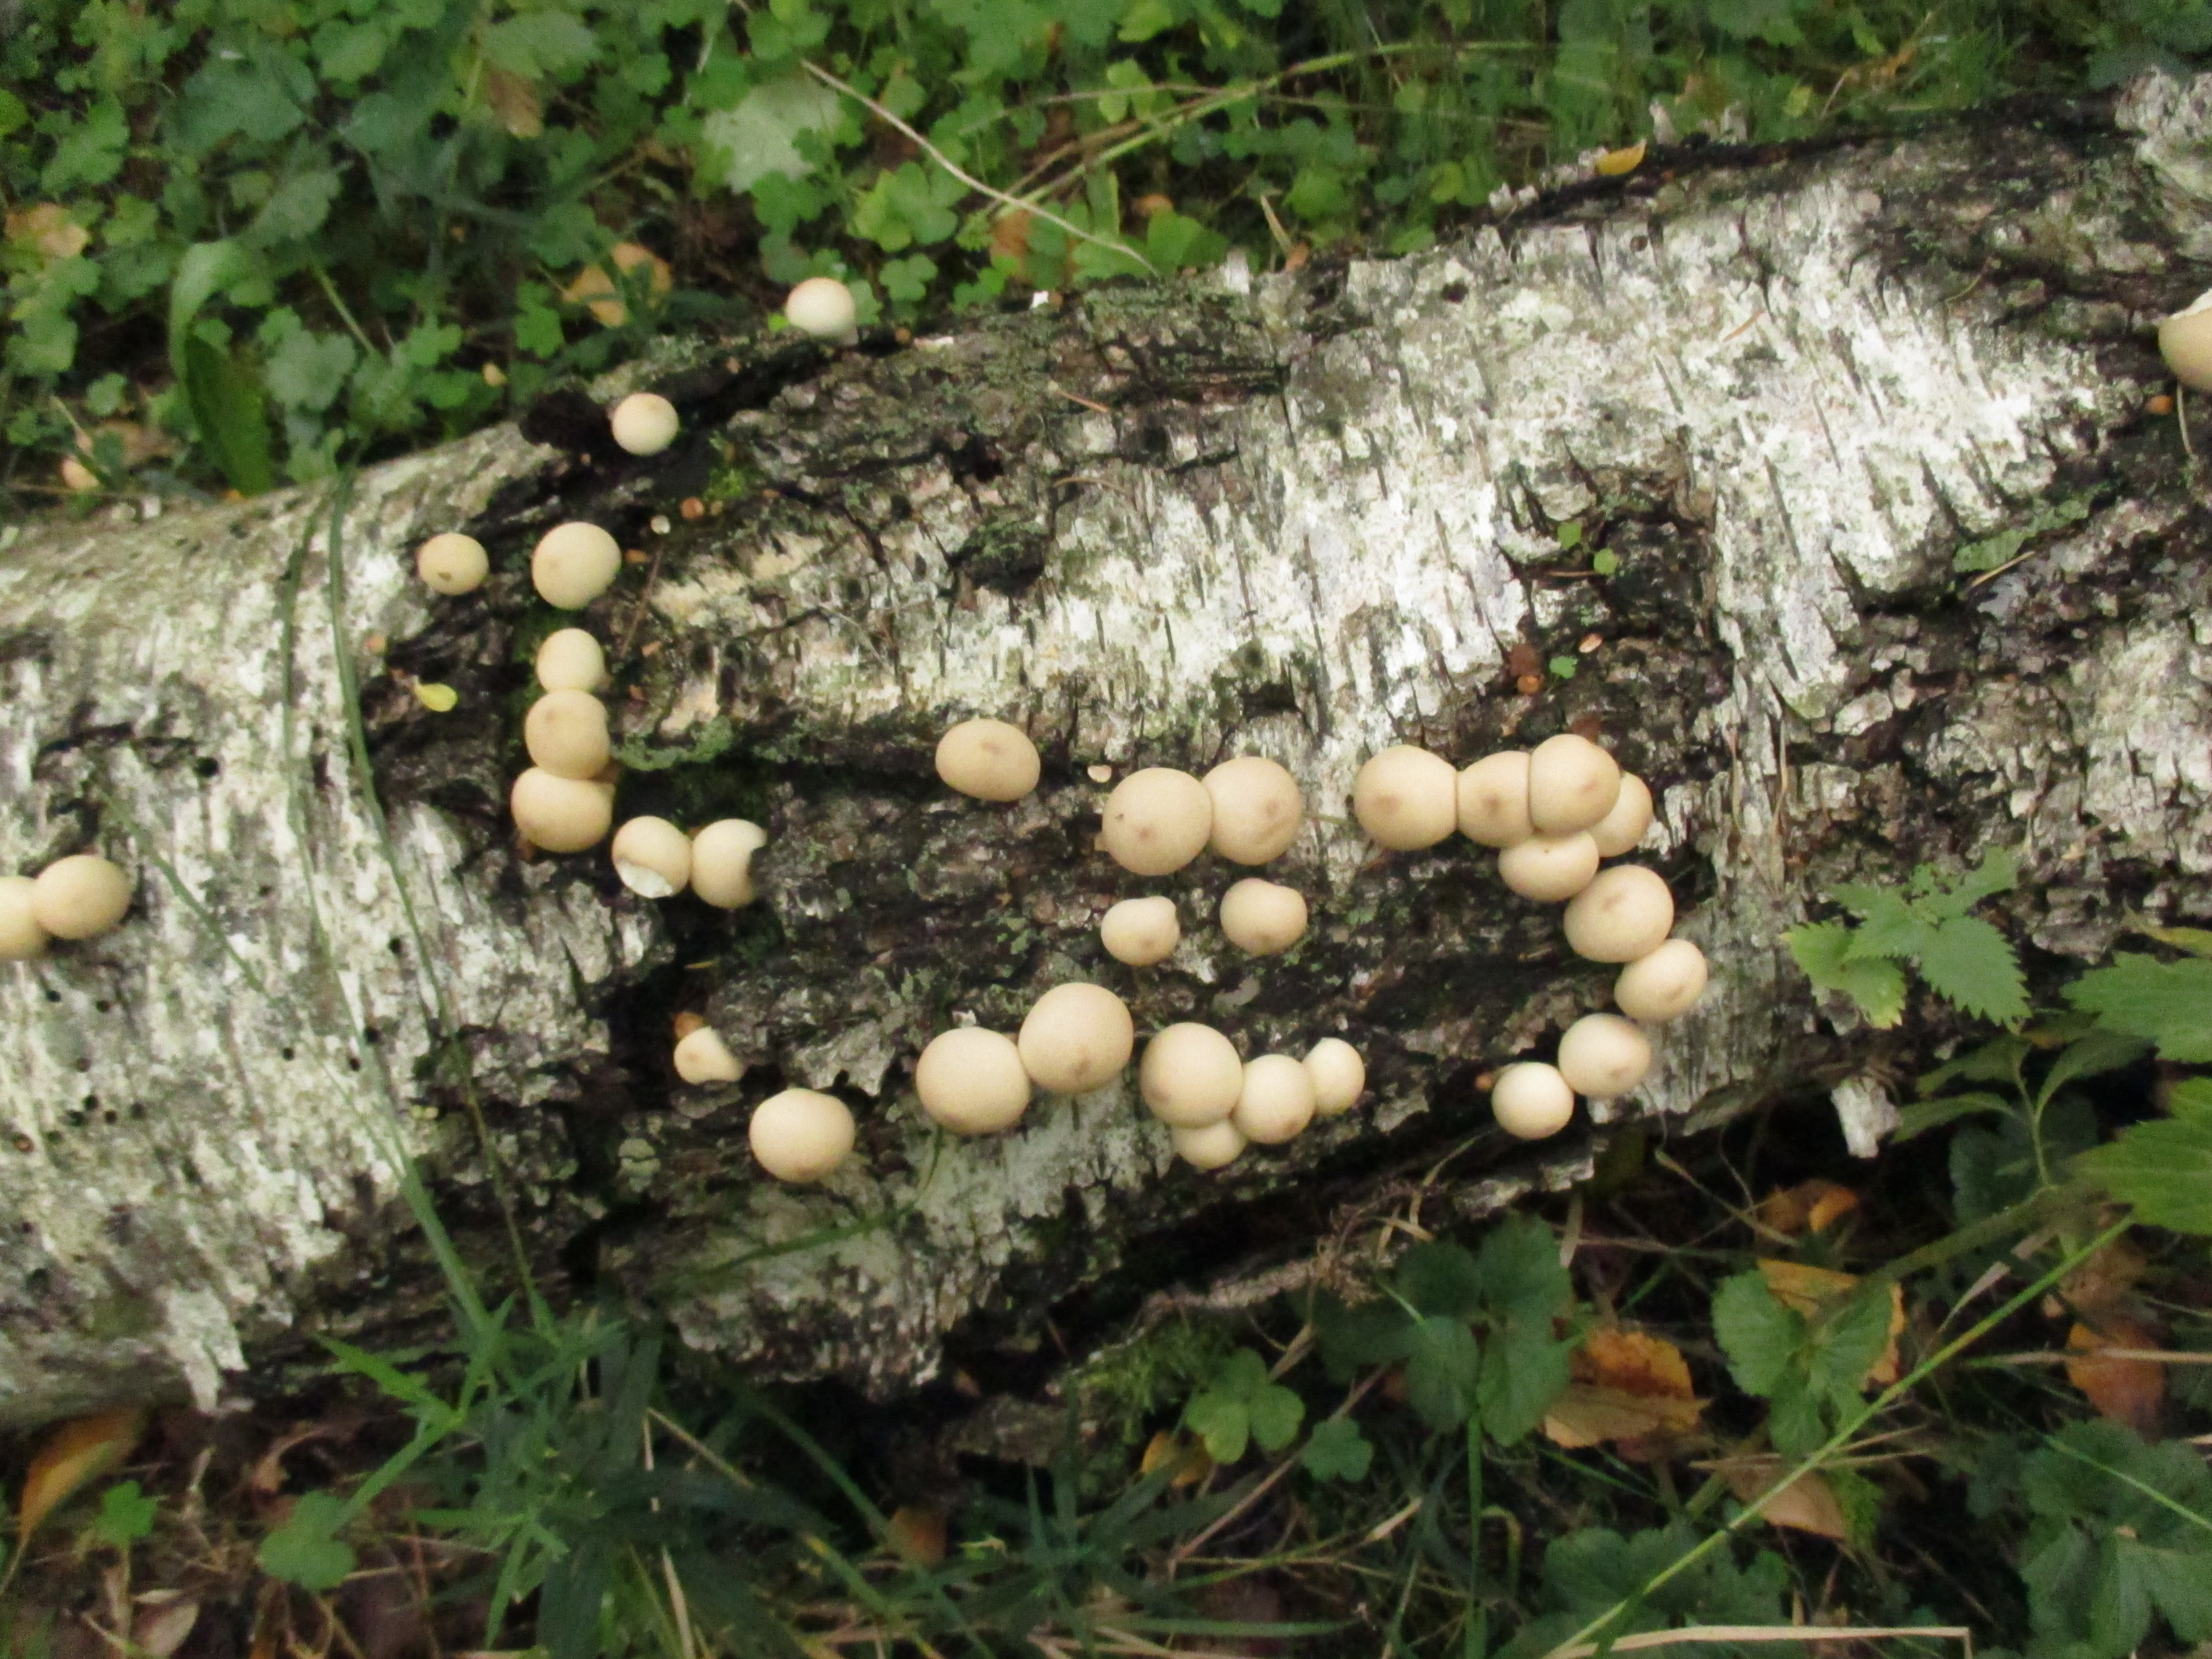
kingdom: Fungi
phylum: Basidiomycota
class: Agaricomycetes
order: Agaricales
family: Lycoperdaceae
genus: Apioperdon
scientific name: Apioperdon pyriforme
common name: Pear-shaped puffball
